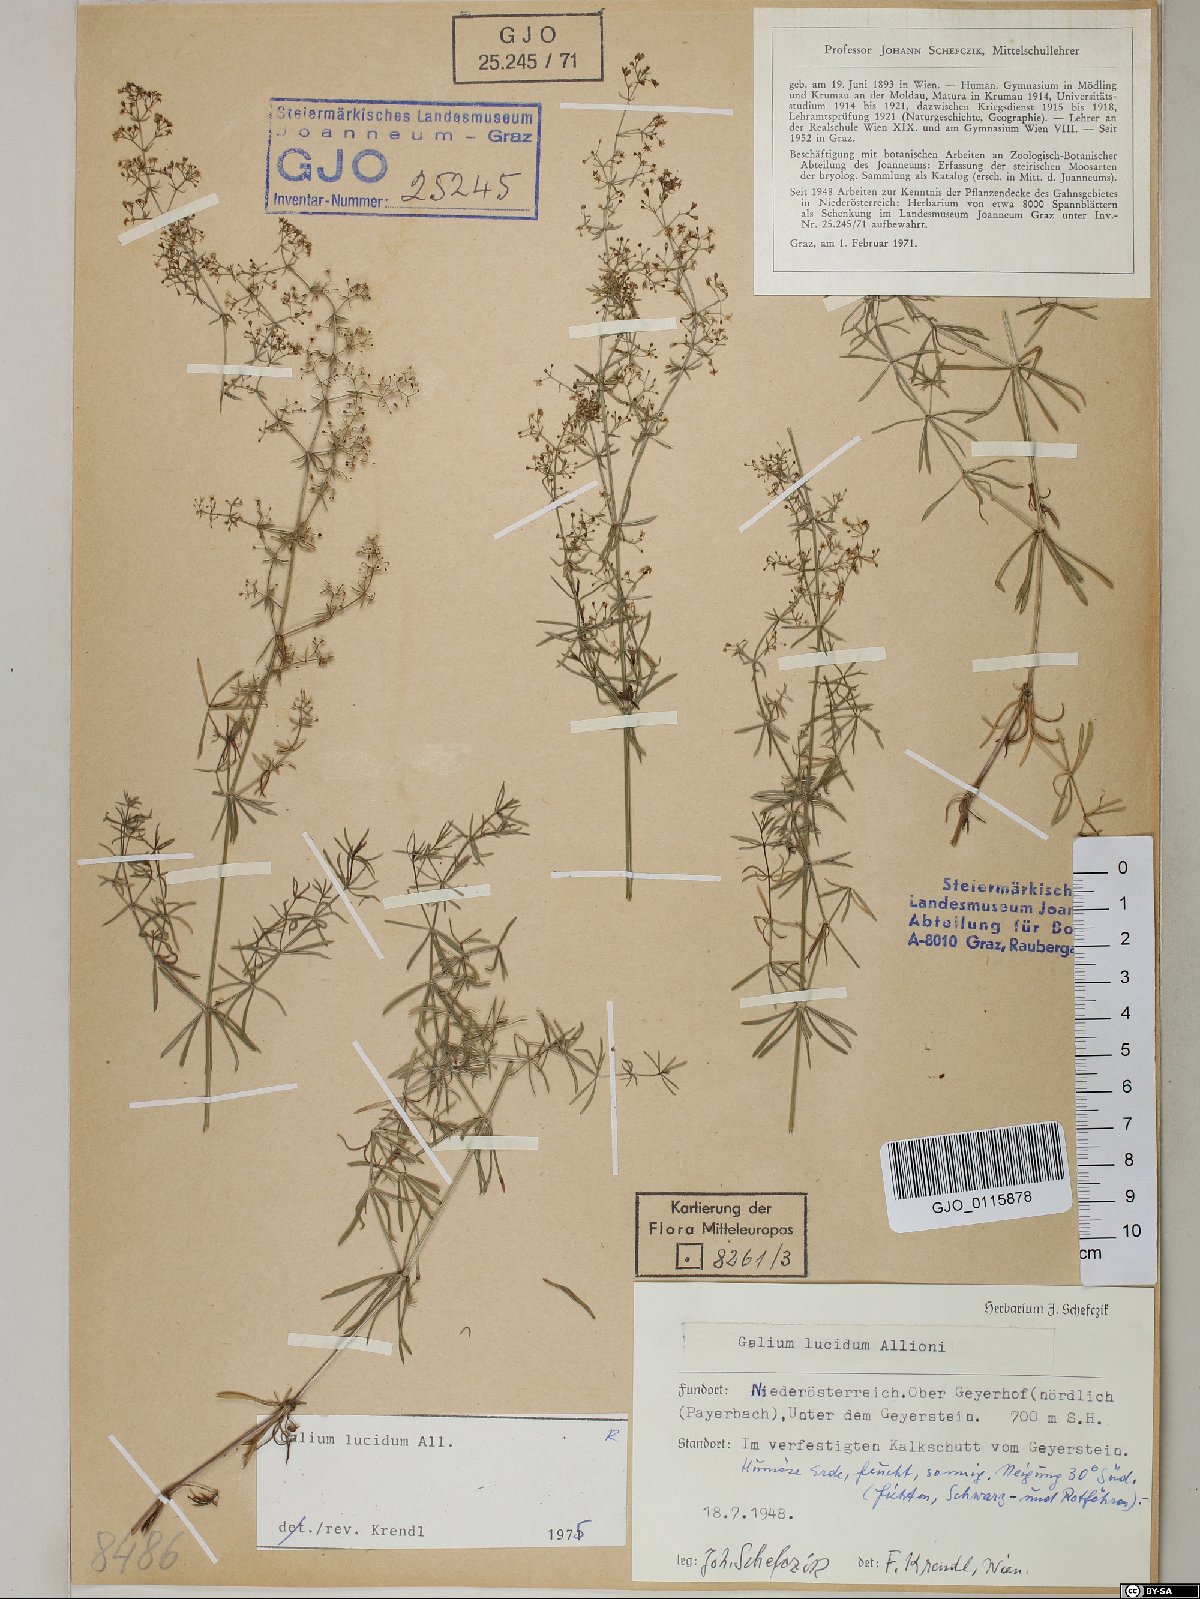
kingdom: Plantae
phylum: Tracheophyta
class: Magnoliopsida
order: Gentianales
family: Rubiaceae
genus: Galium
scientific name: Galium lucidum
